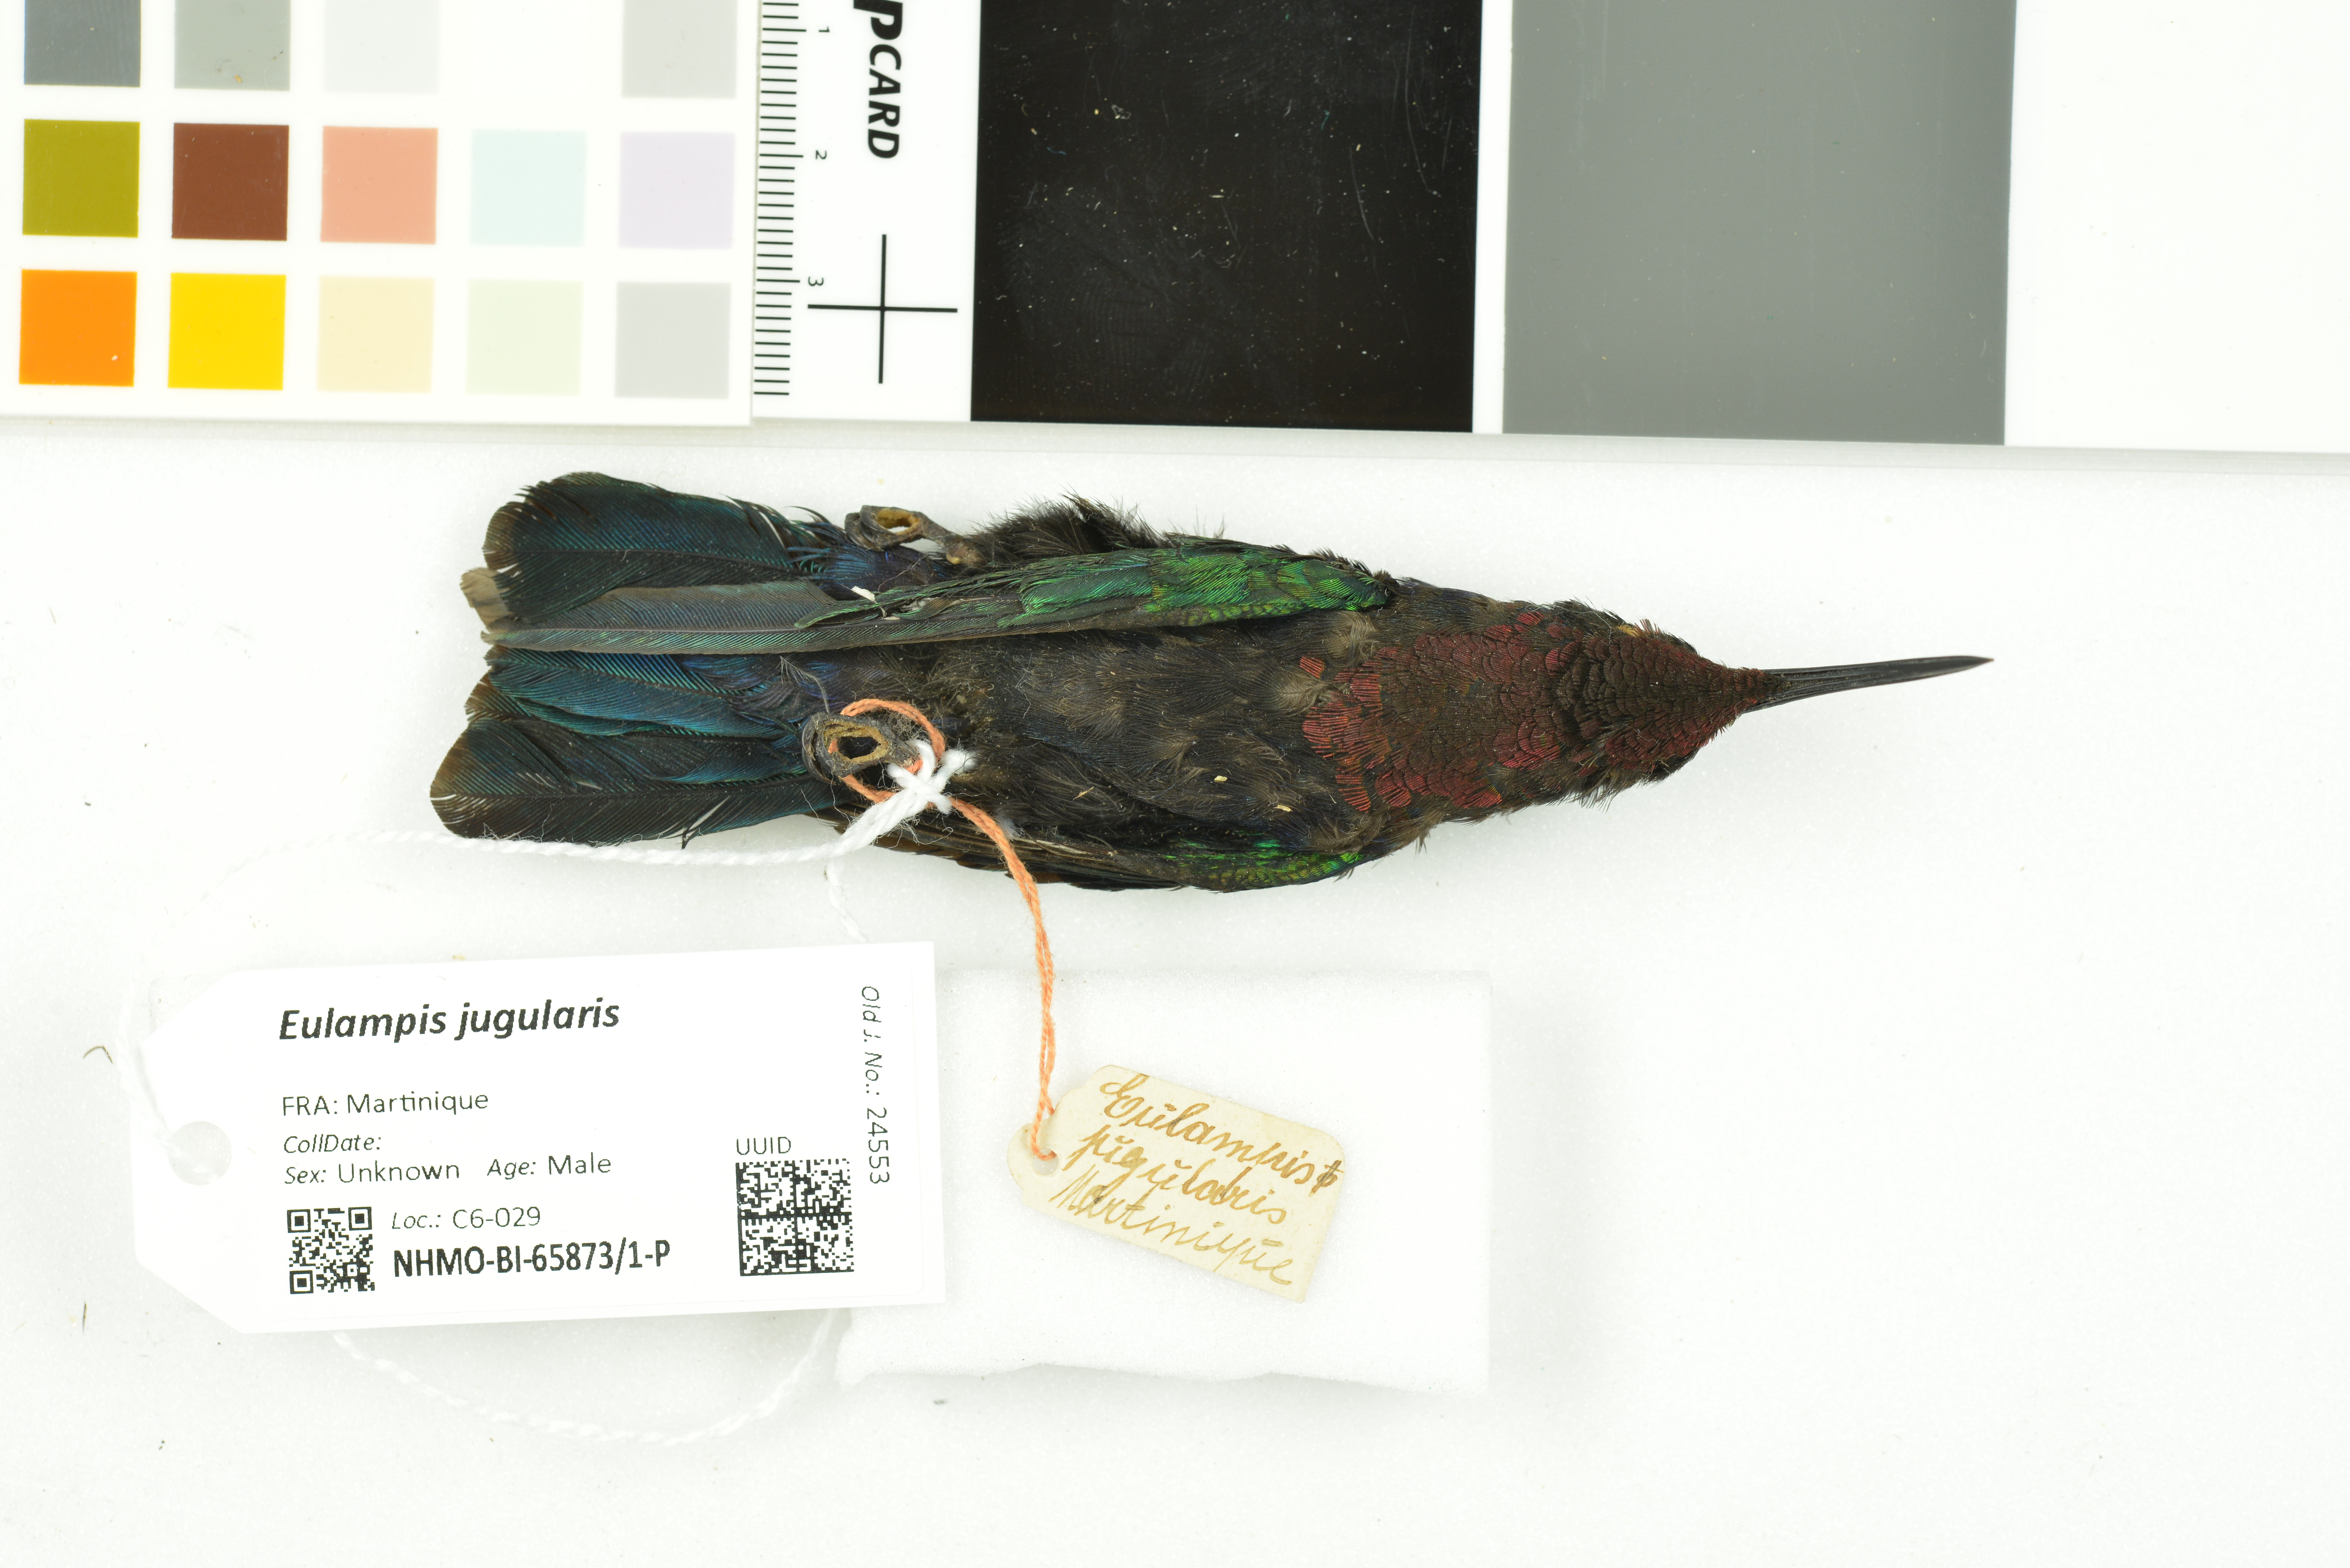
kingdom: Animalia
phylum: Chordata
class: Aves
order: Apodiformes
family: Trochilidae
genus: Eulampis
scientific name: Eulampis jugularis
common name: Purple-throated carib
